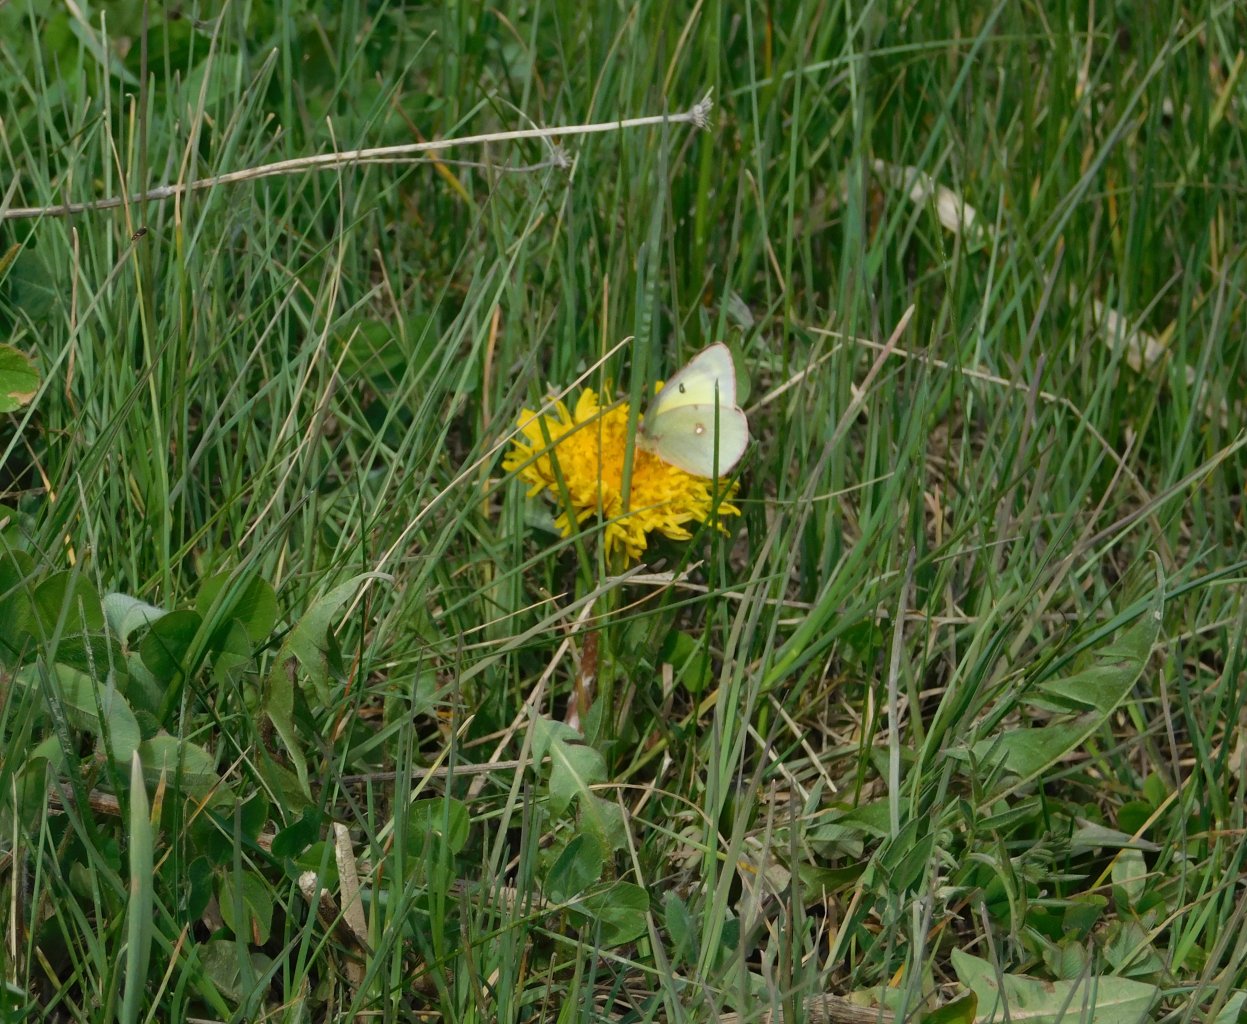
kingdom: Animalia
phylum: Arthropoda
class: Insecta
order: Lepidoptera
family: Pieridae
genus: Colias
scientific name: Colias philodice
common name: Clouded Sulphur
